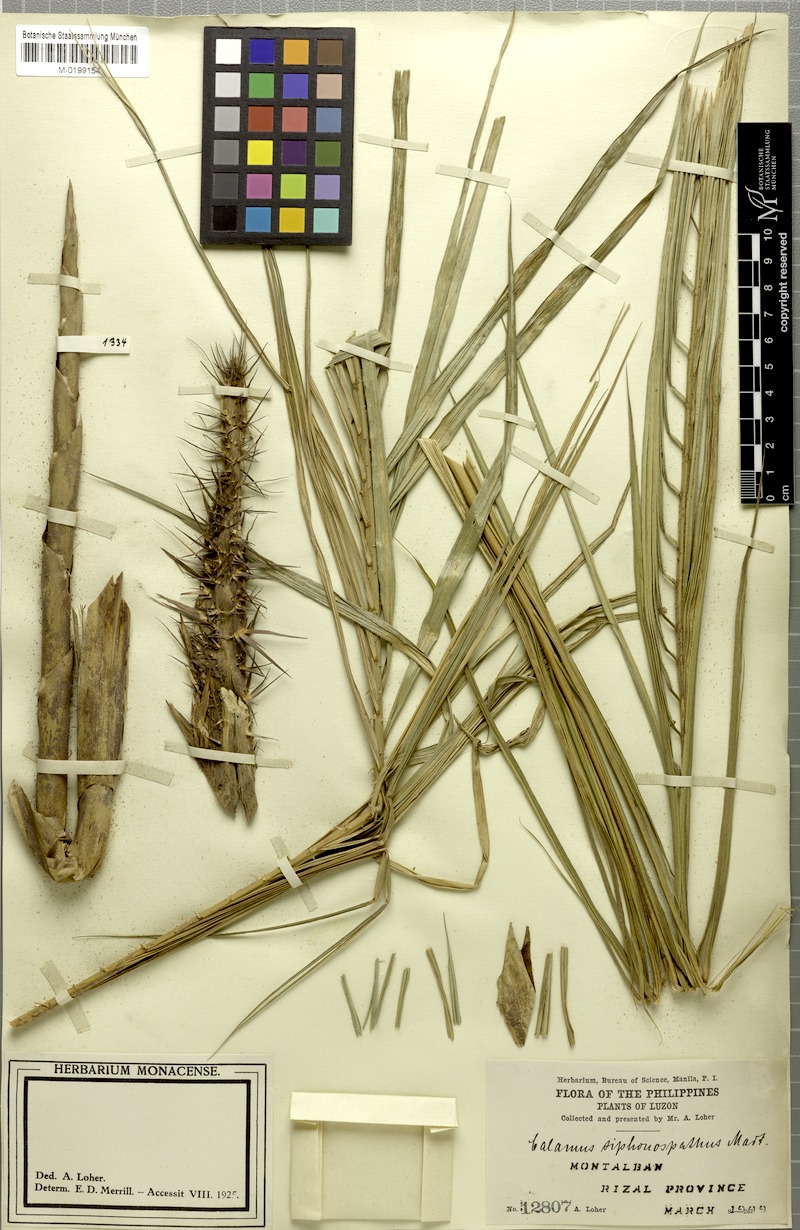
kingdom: Plantae
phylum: Tracheophyta
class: Liliopsida
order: Arecales
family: Arecaceae
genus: Calamus
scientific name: Calamus siphonospathus
